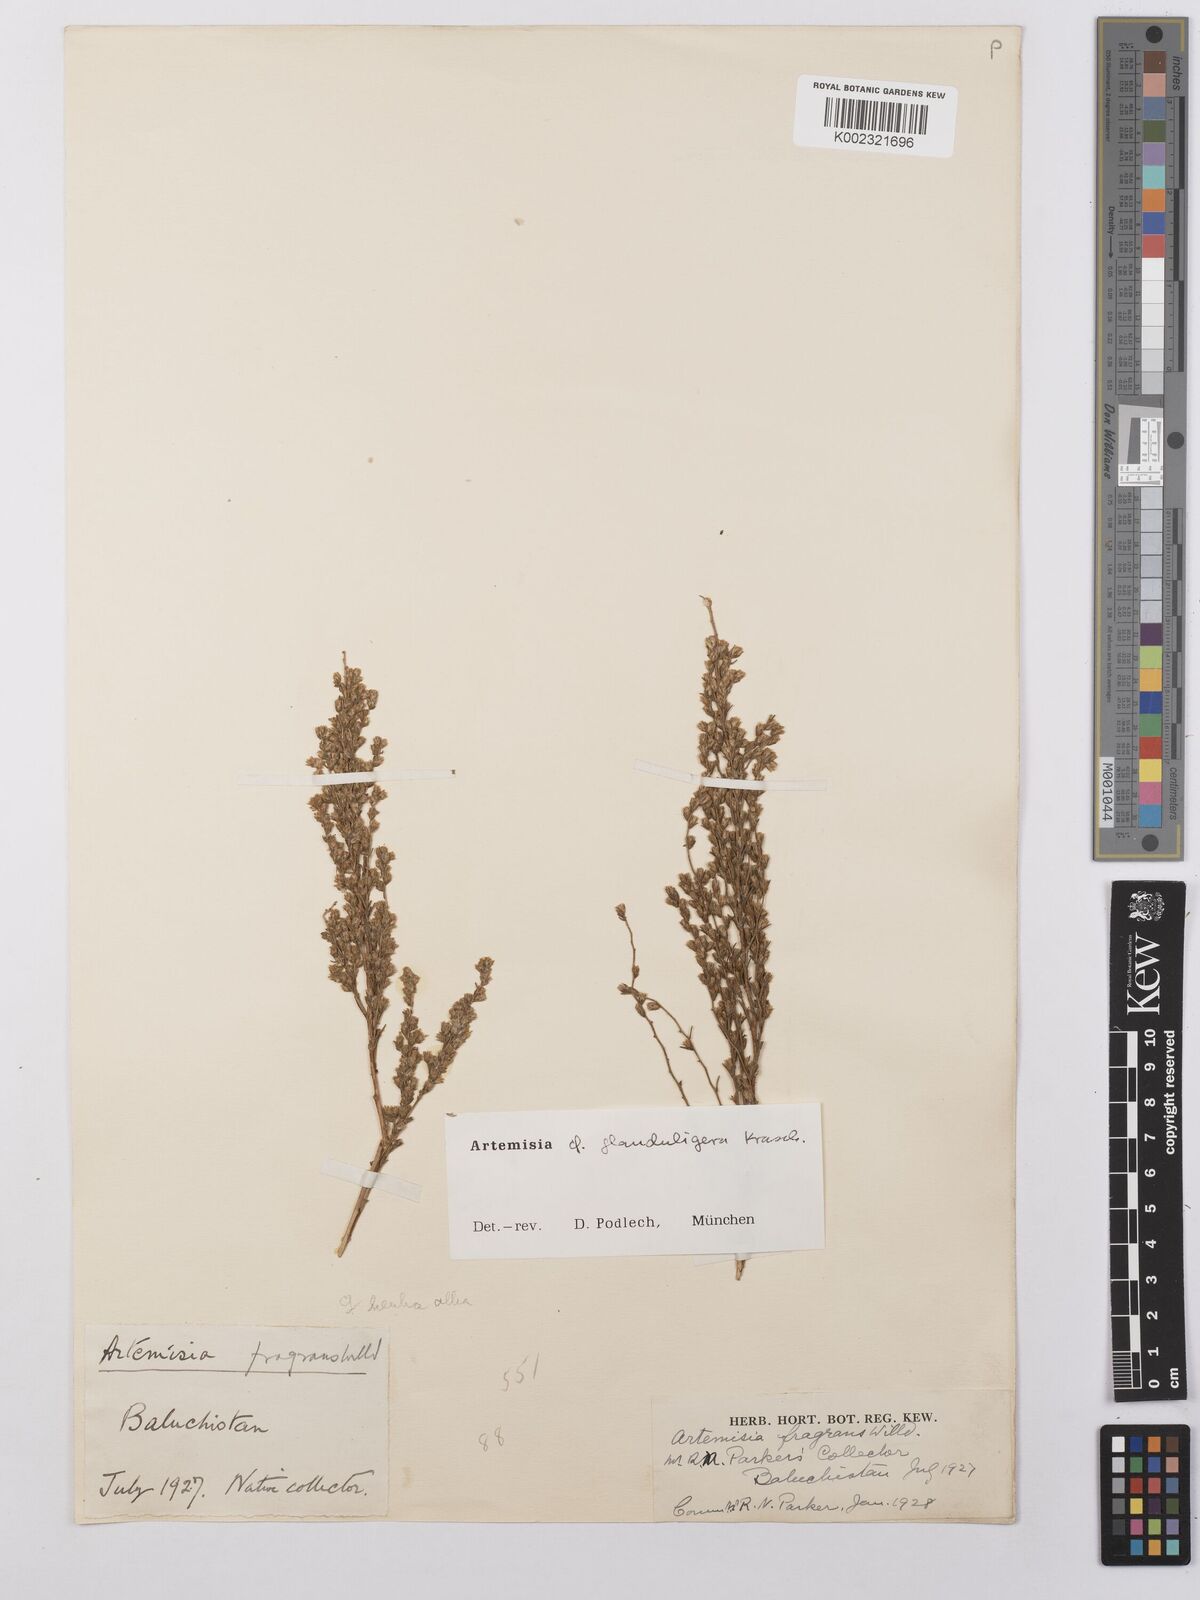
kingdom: Plantae
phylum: Tracheophyta
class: Magnoliopsida
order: Asterales
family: Asteraceae
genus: Artemisia
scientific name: Artemisia glanduligera
